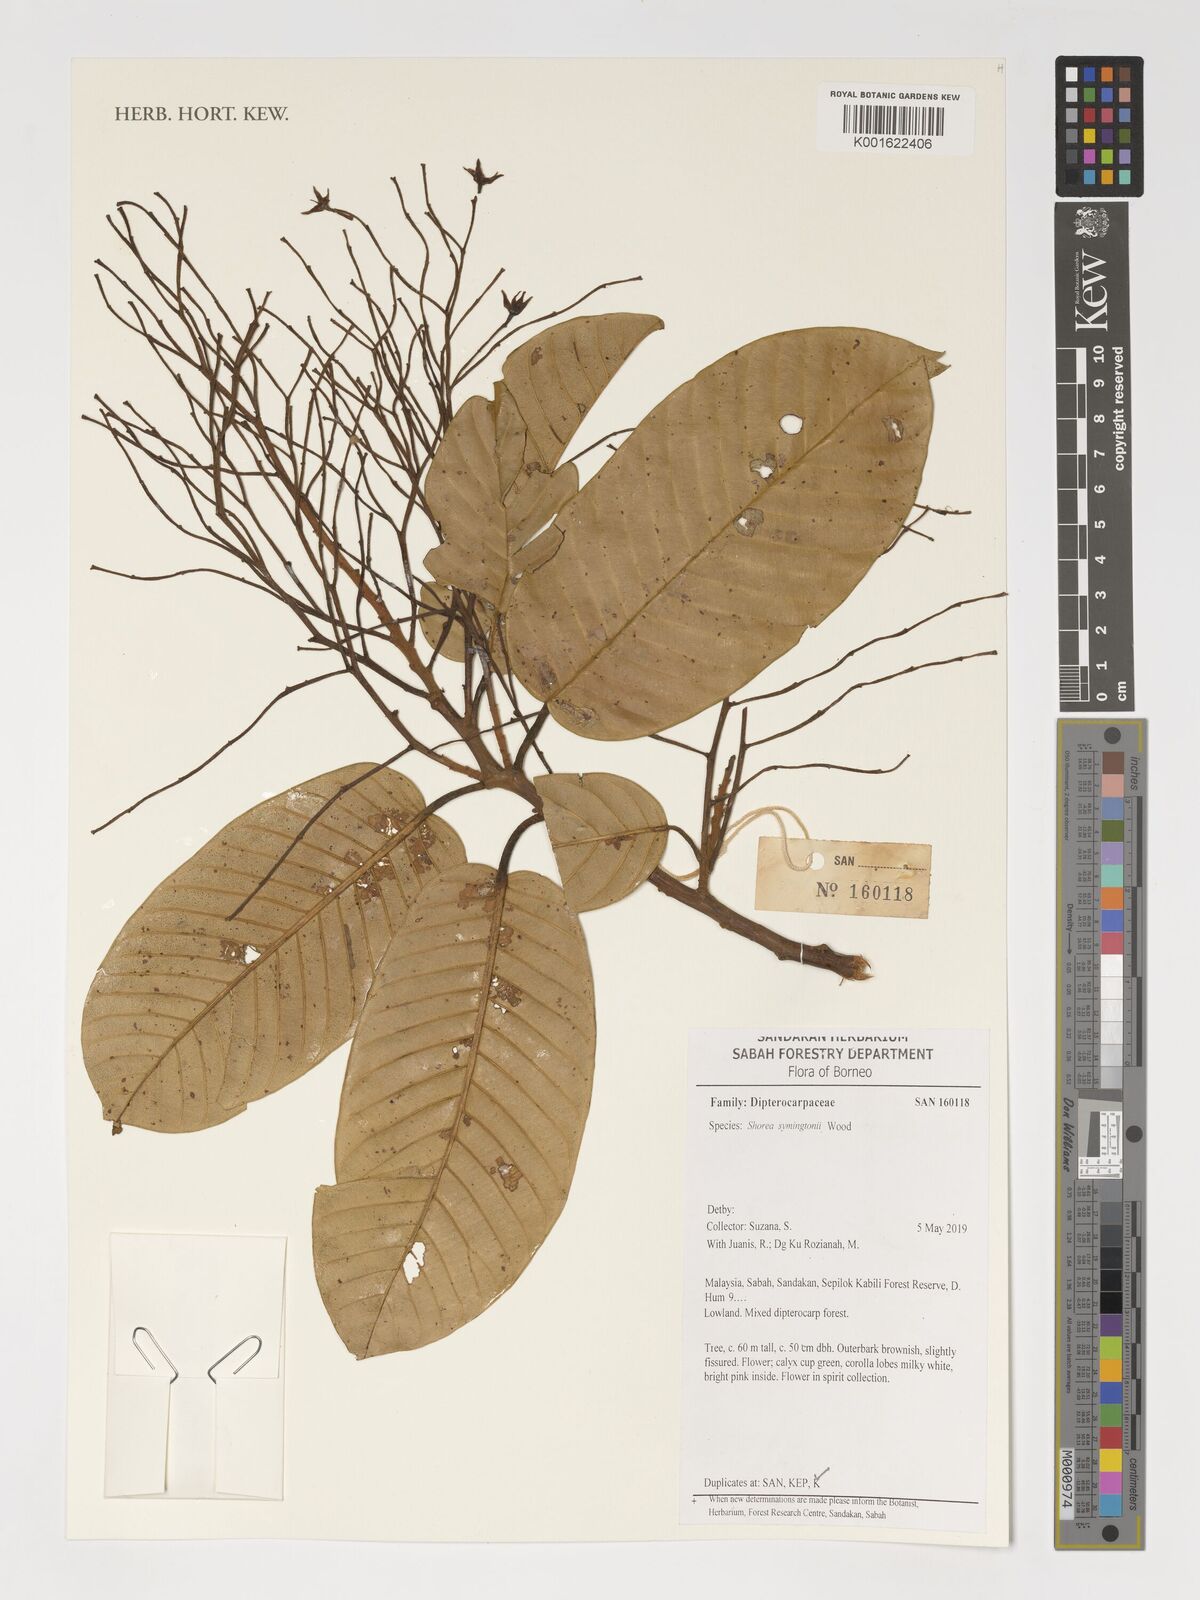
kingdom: Plantae
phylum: Tracheophyta
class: Magnoliopsida
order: Malvales
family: Dipterocarpaceae
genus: Anthoshorea
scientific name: Anthoshorea symingtonii
